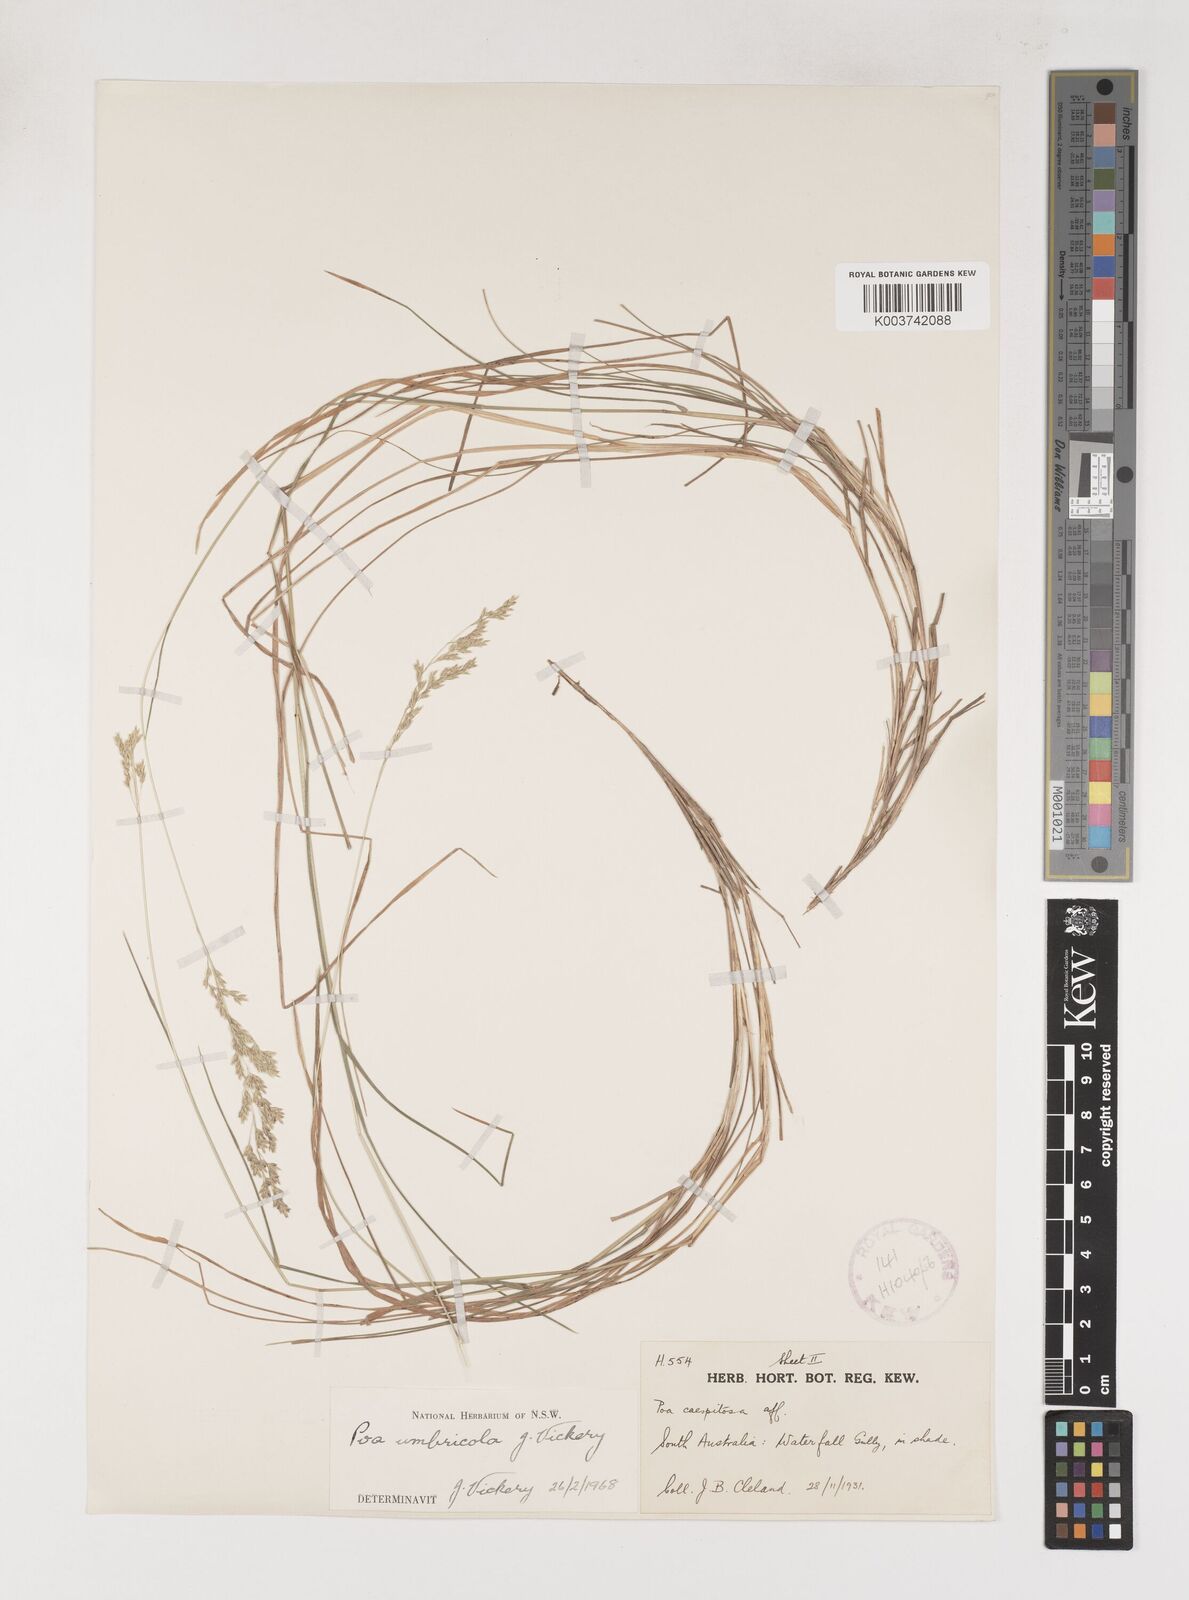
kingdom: Plantae
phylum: Tracheophyta
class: Liliopsida
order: Poales
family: Poaceae
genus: Poa
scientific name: Poa umbricola
